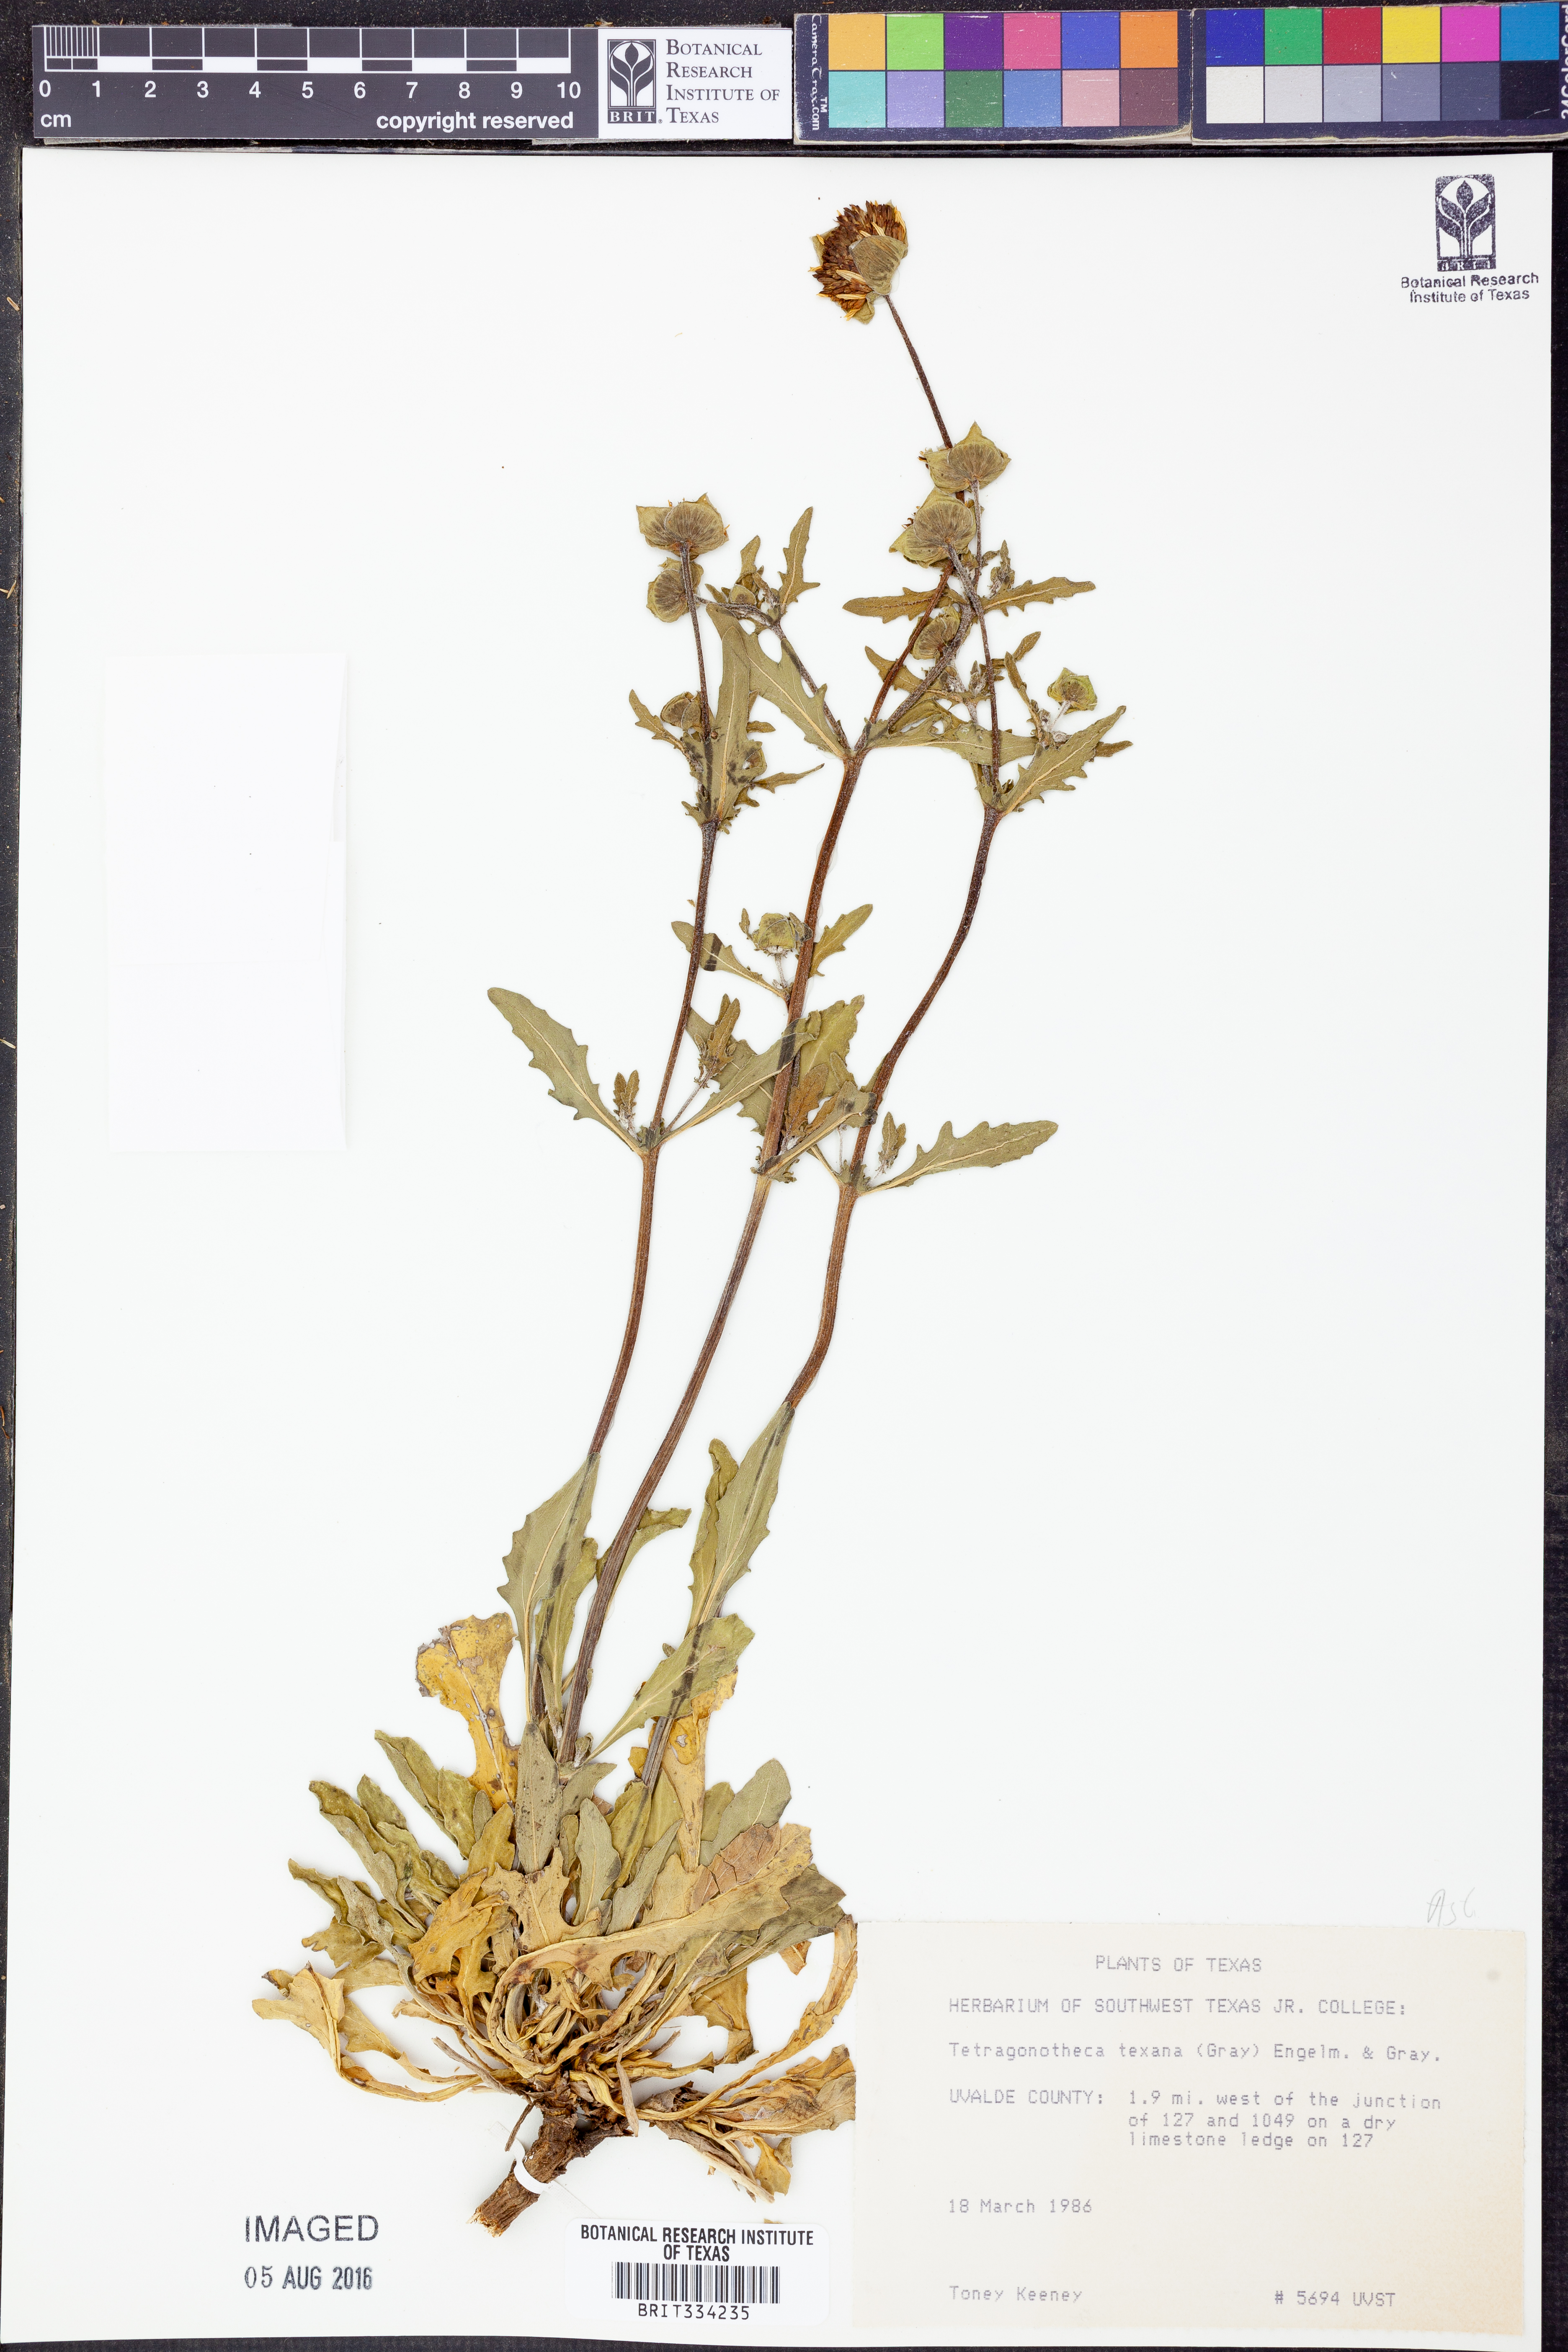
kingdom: Plantae
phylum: Tracheophyta
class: Magnoliopsida
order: Asterales
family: Asteraceae
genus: Tetragonotheca
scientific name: Tetragonotheca texana
